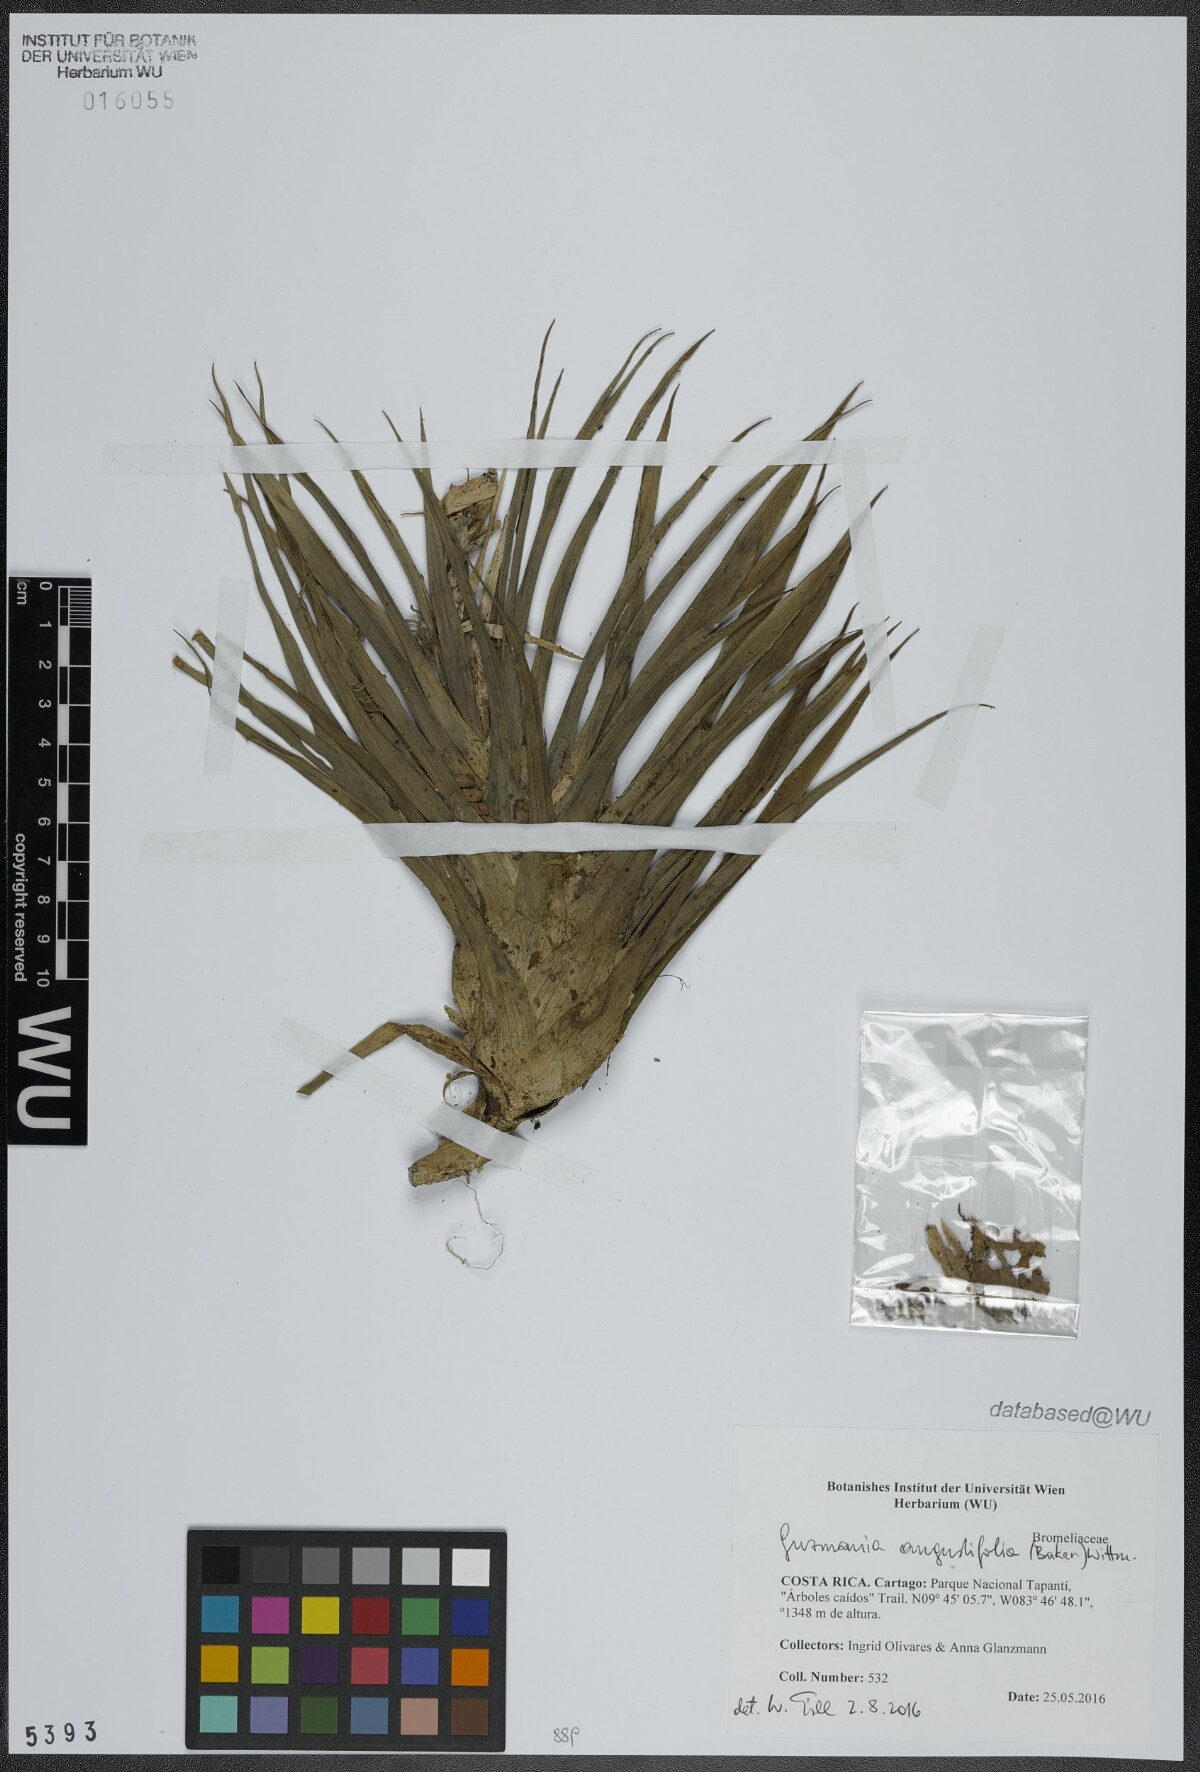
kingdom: Plantae
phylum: Tracheophyta
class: Liliopsida
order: Poales
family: Bromeliaceae
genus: Guzmania
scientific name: Guzmania plicatifolia
